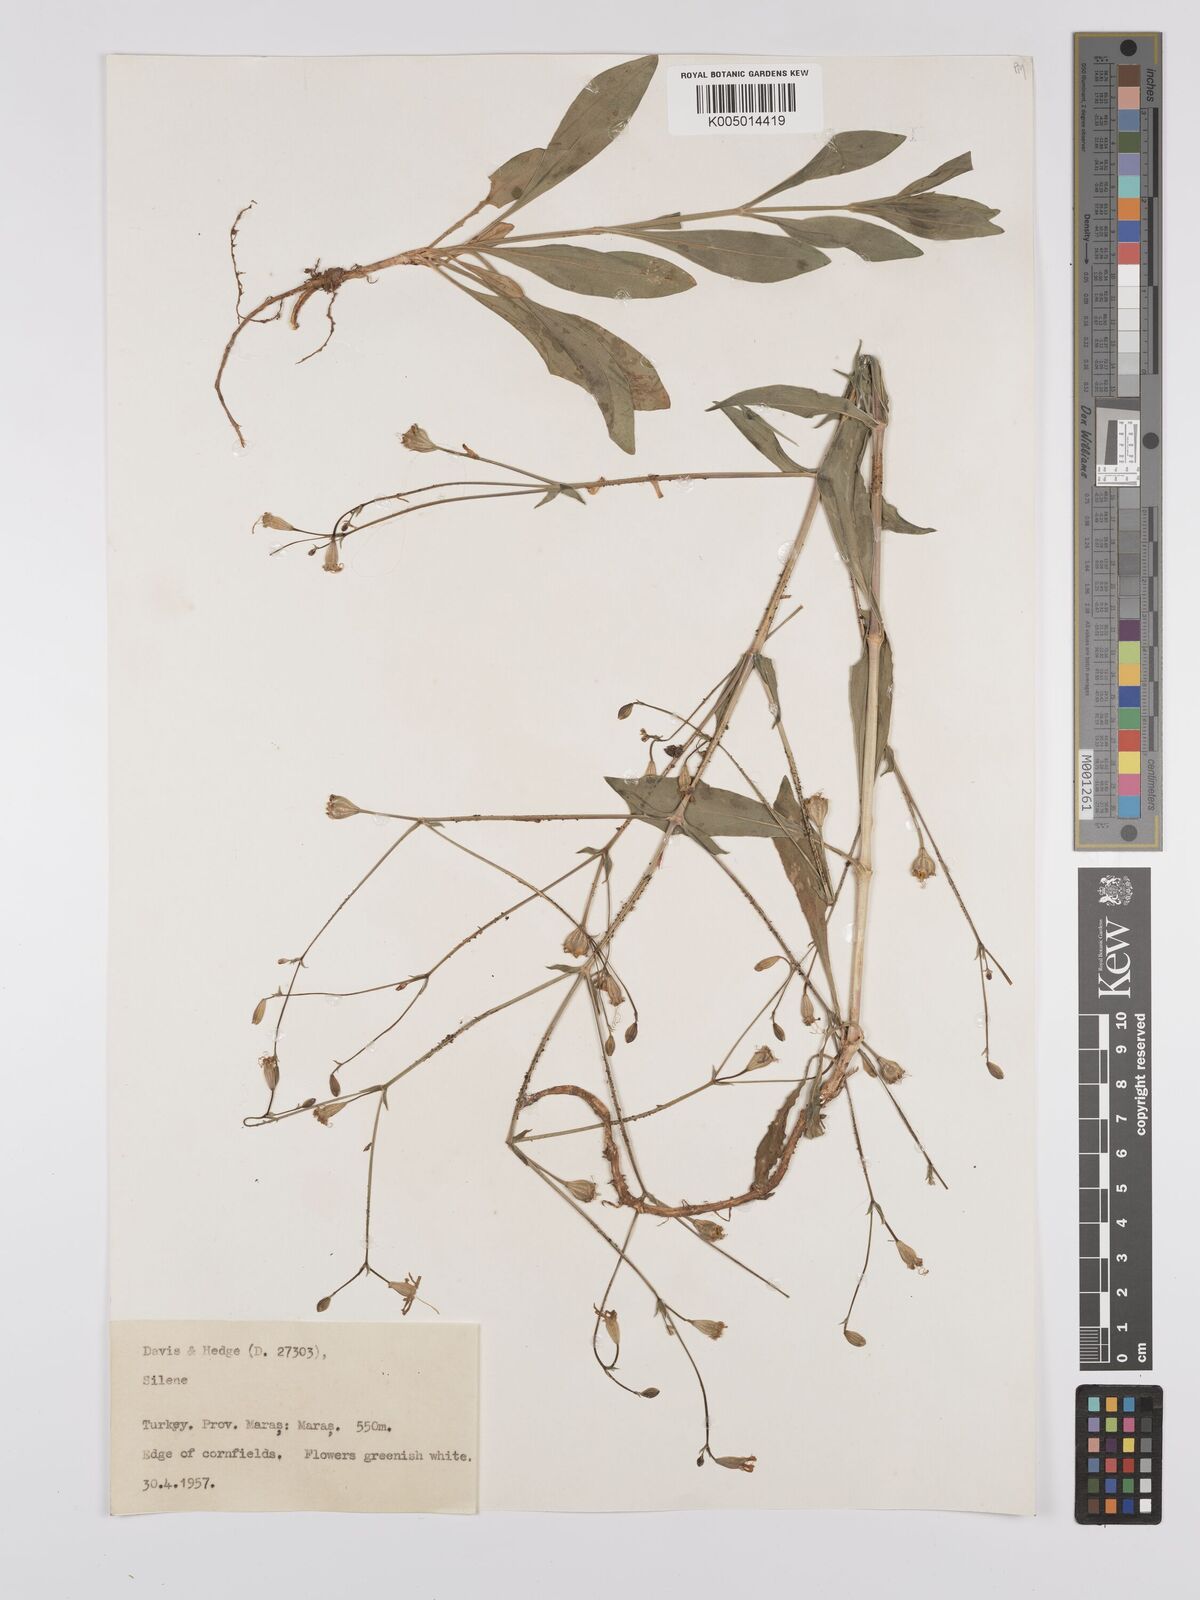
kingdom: Plantae
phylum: Tracheophyta
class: Magnoliopsida
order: Caryophyllales
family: Caryophyllaceae
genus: Silene
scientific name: Silene
